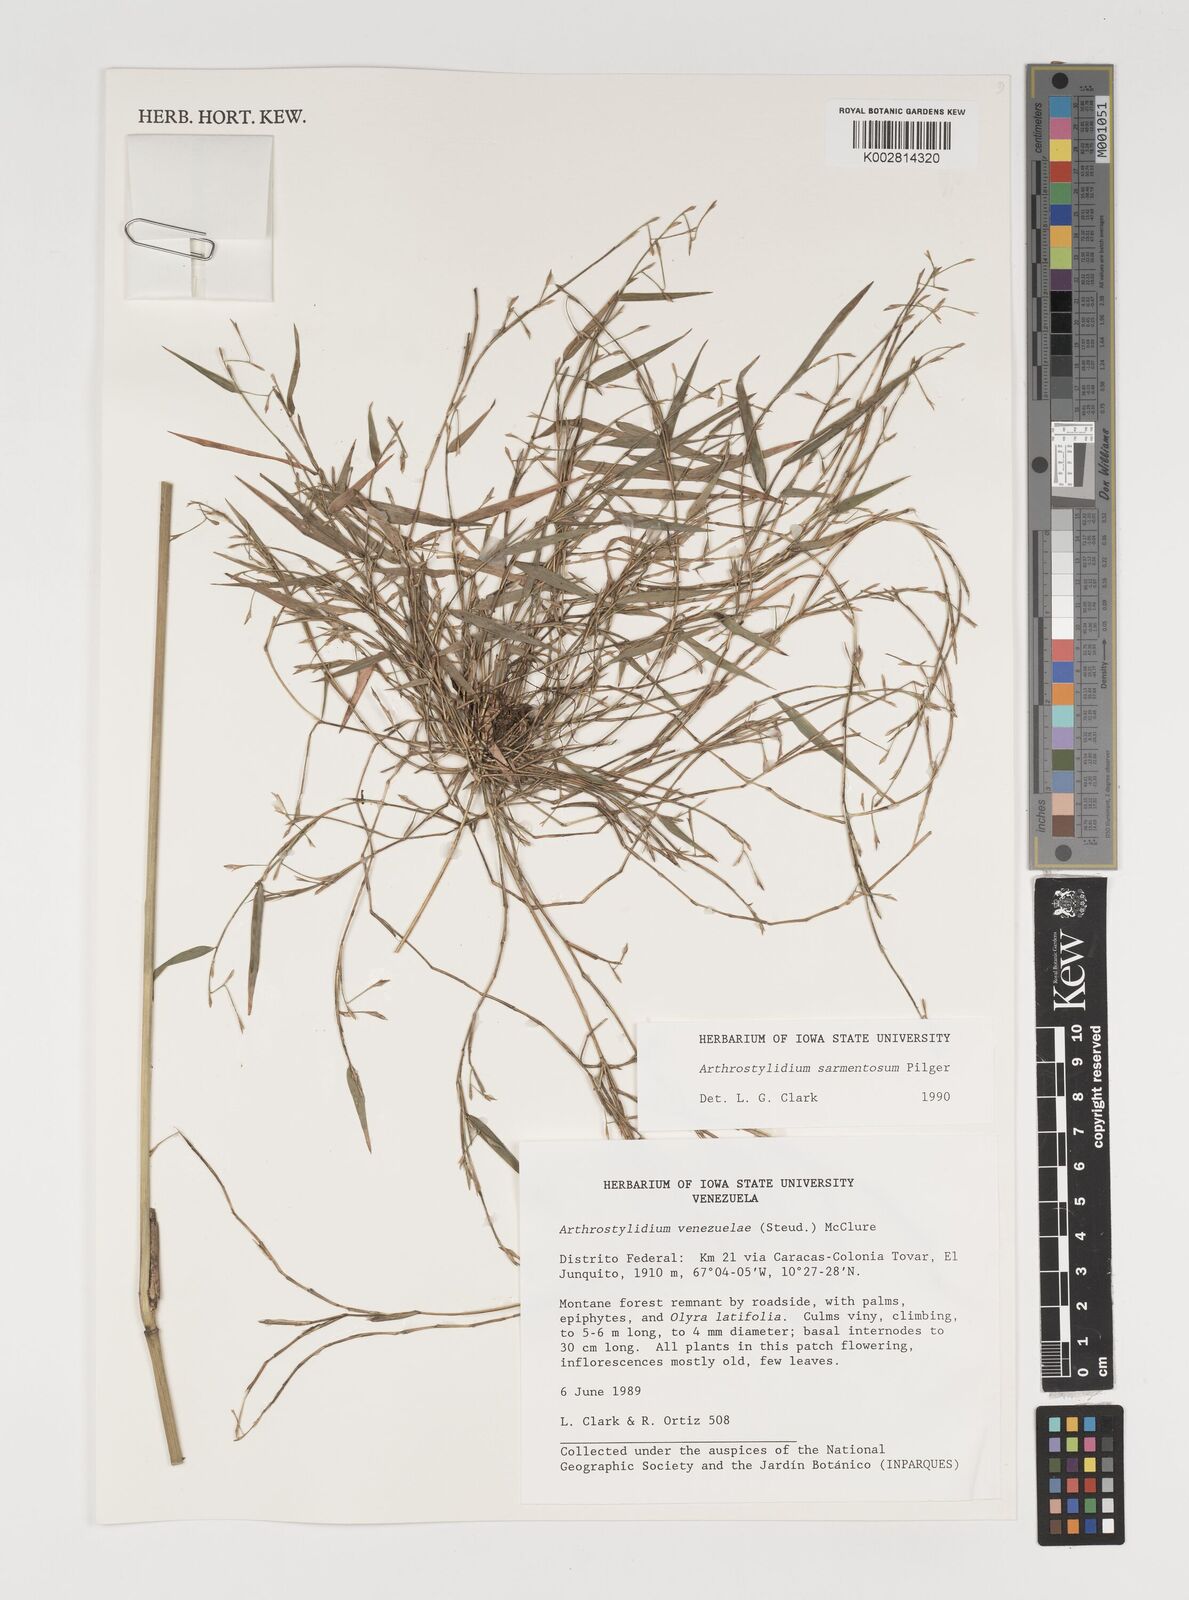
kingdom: Plantae
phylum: Tracheophyta
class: Liliopsida
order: Poales
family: Poaceae
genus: Arthrostylidium
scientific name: Arthrostylidium sarmentosum
